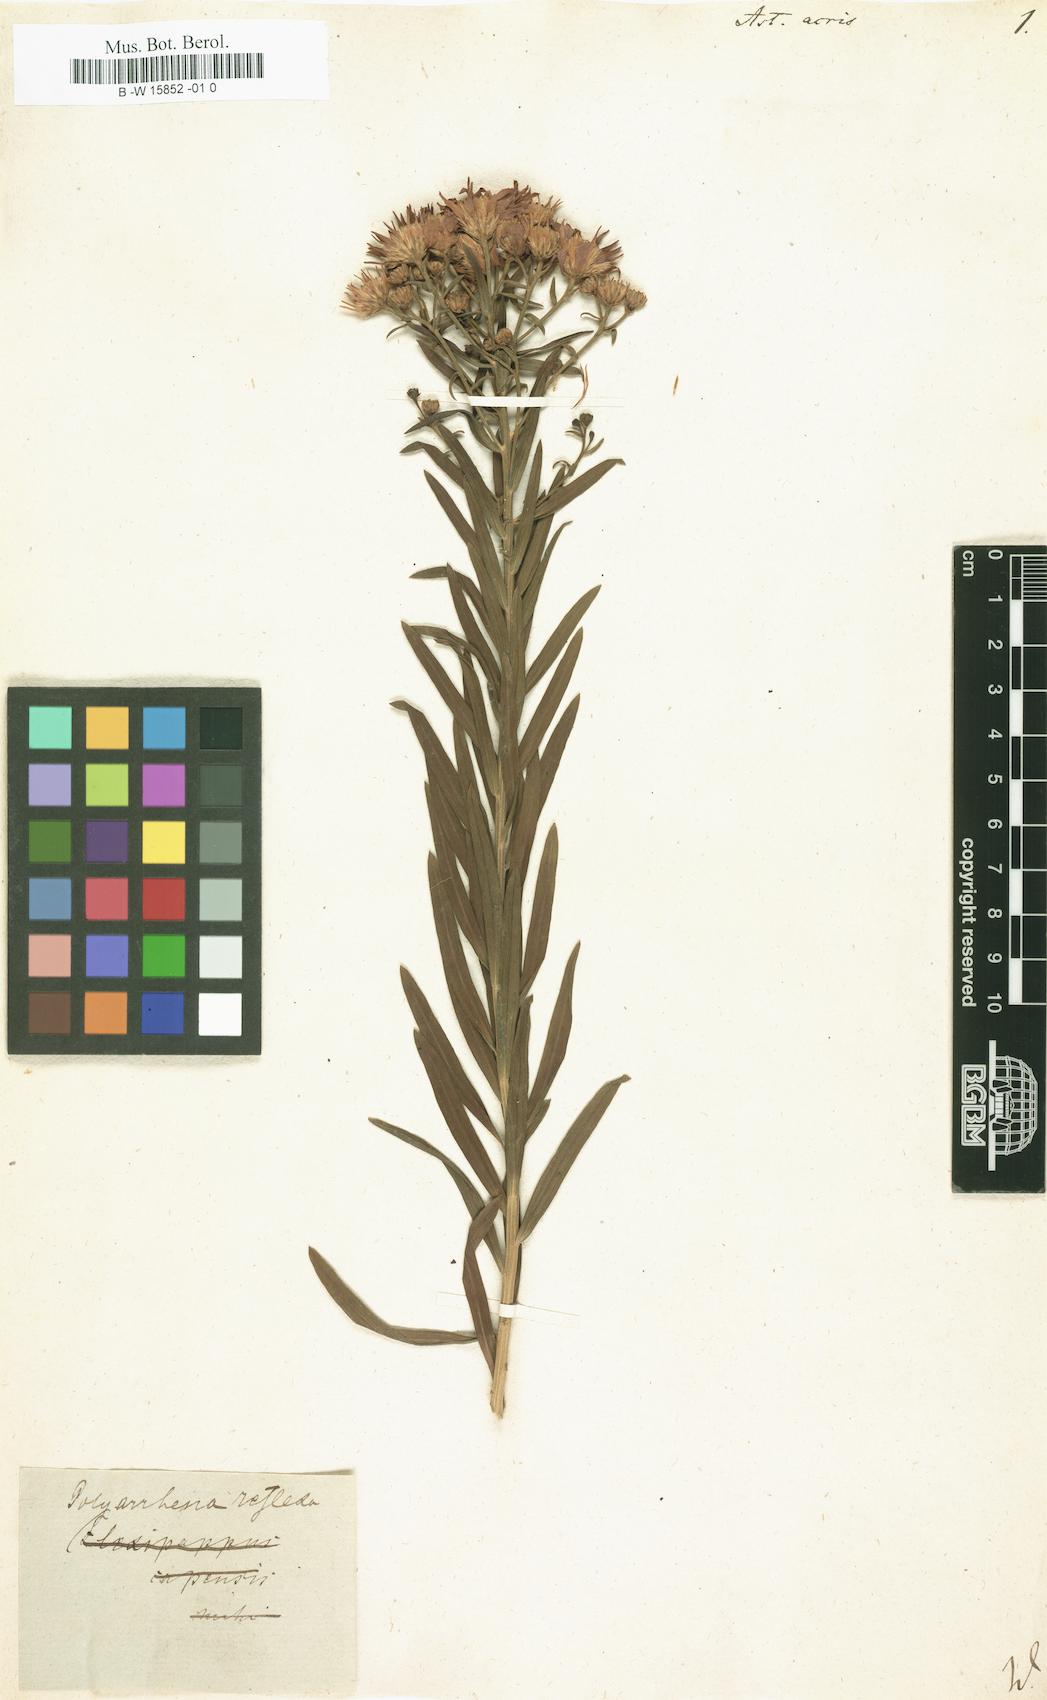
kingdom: Plantae
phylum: Tracheophyta
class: Magnoliopsida
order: Asterales
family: Asteraceae
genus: Aster
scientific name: Aster acris
